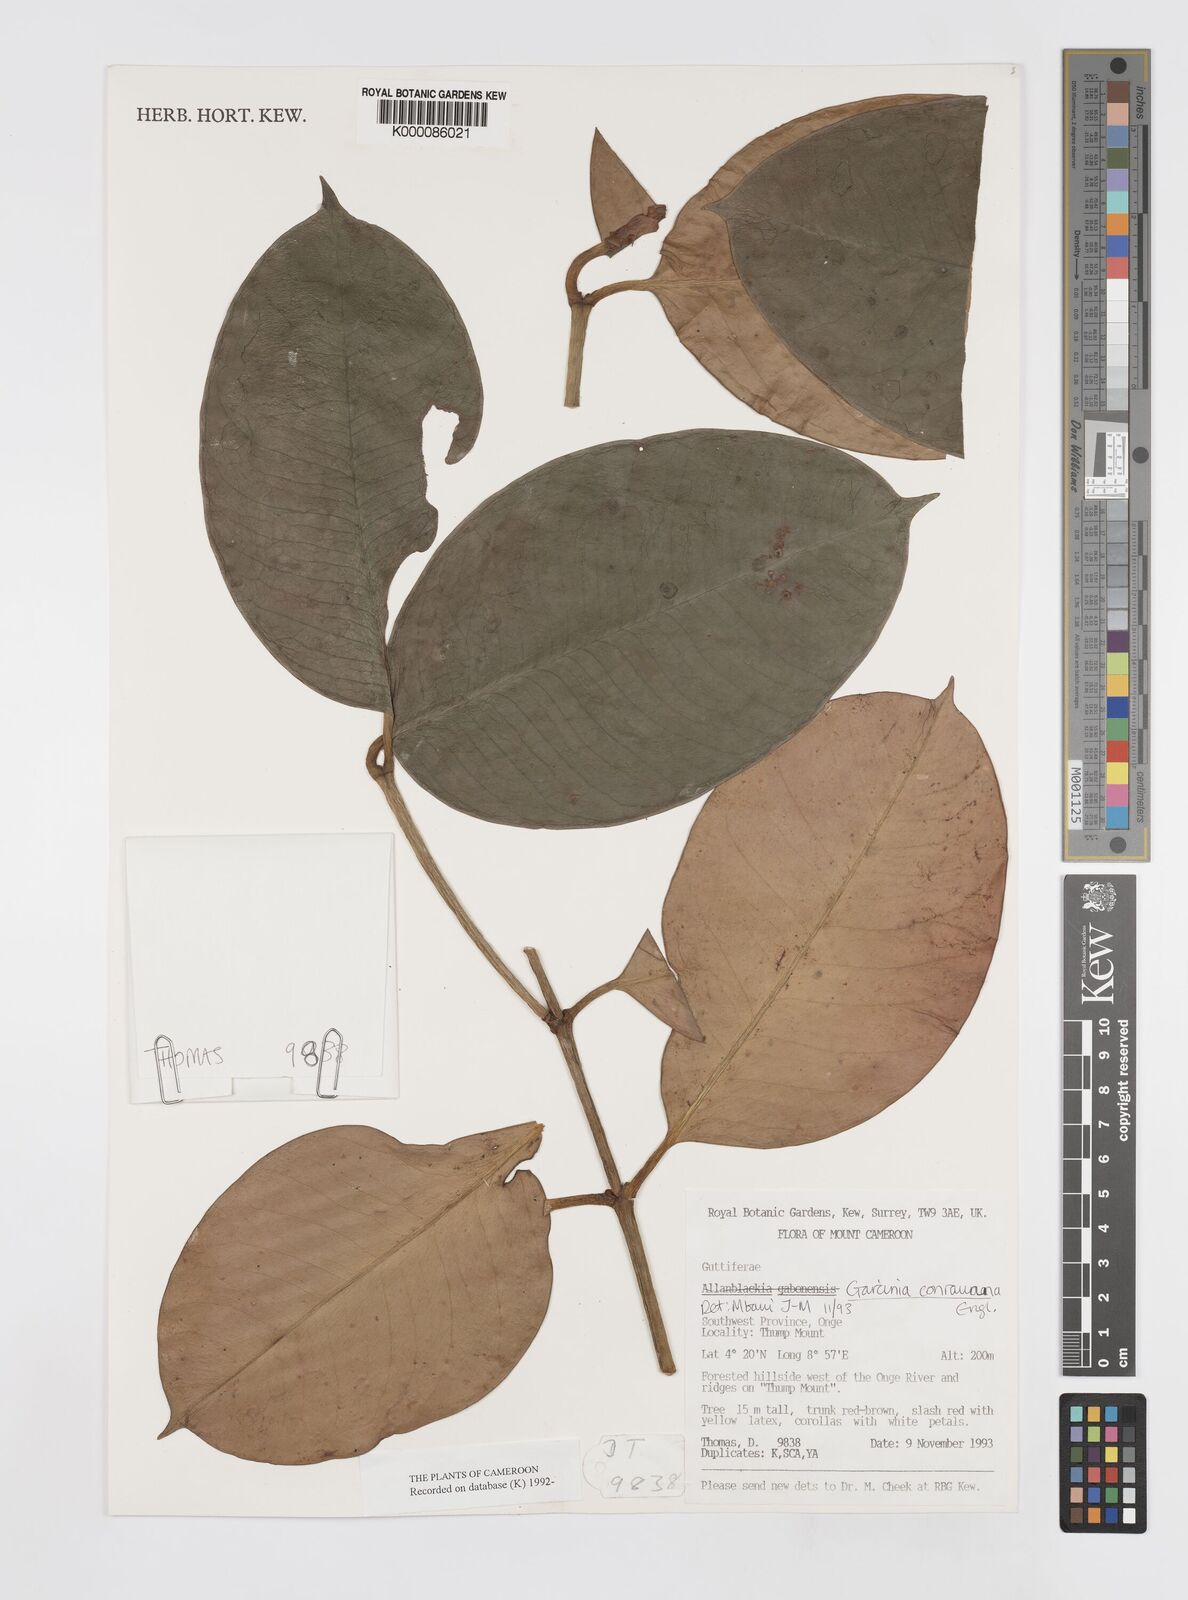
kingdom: Plantae
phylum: Tracheophyta
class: Magnoliopsida
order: Malpighiales
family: Clusiaceae
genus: Garcinia
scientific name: Garcinia conrauana
